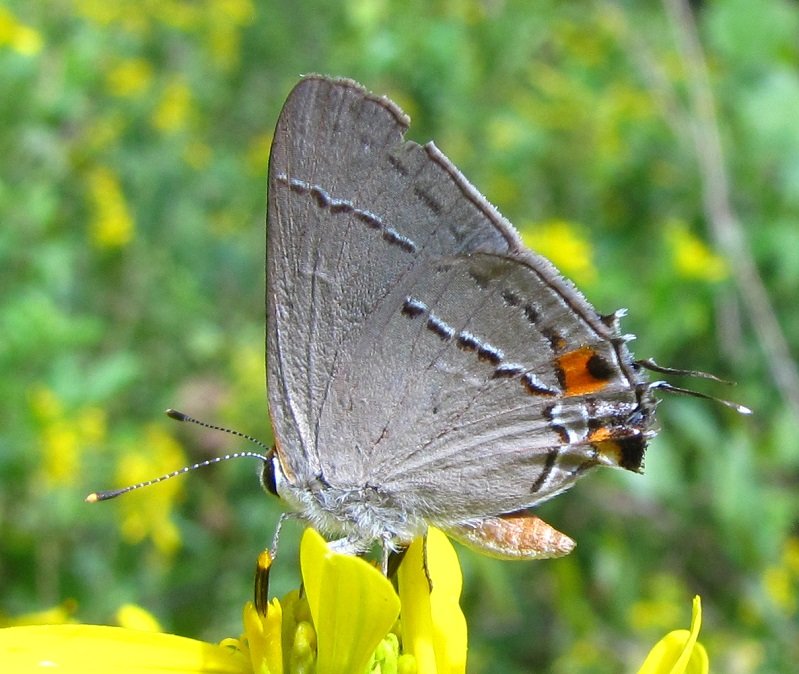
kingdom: Animalia
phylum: Arthropoda
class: Insecta
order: Lepidoptera
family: Lycaenidae
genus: Strymon
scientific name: Strymon melinus
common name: Gray Hairstreak
